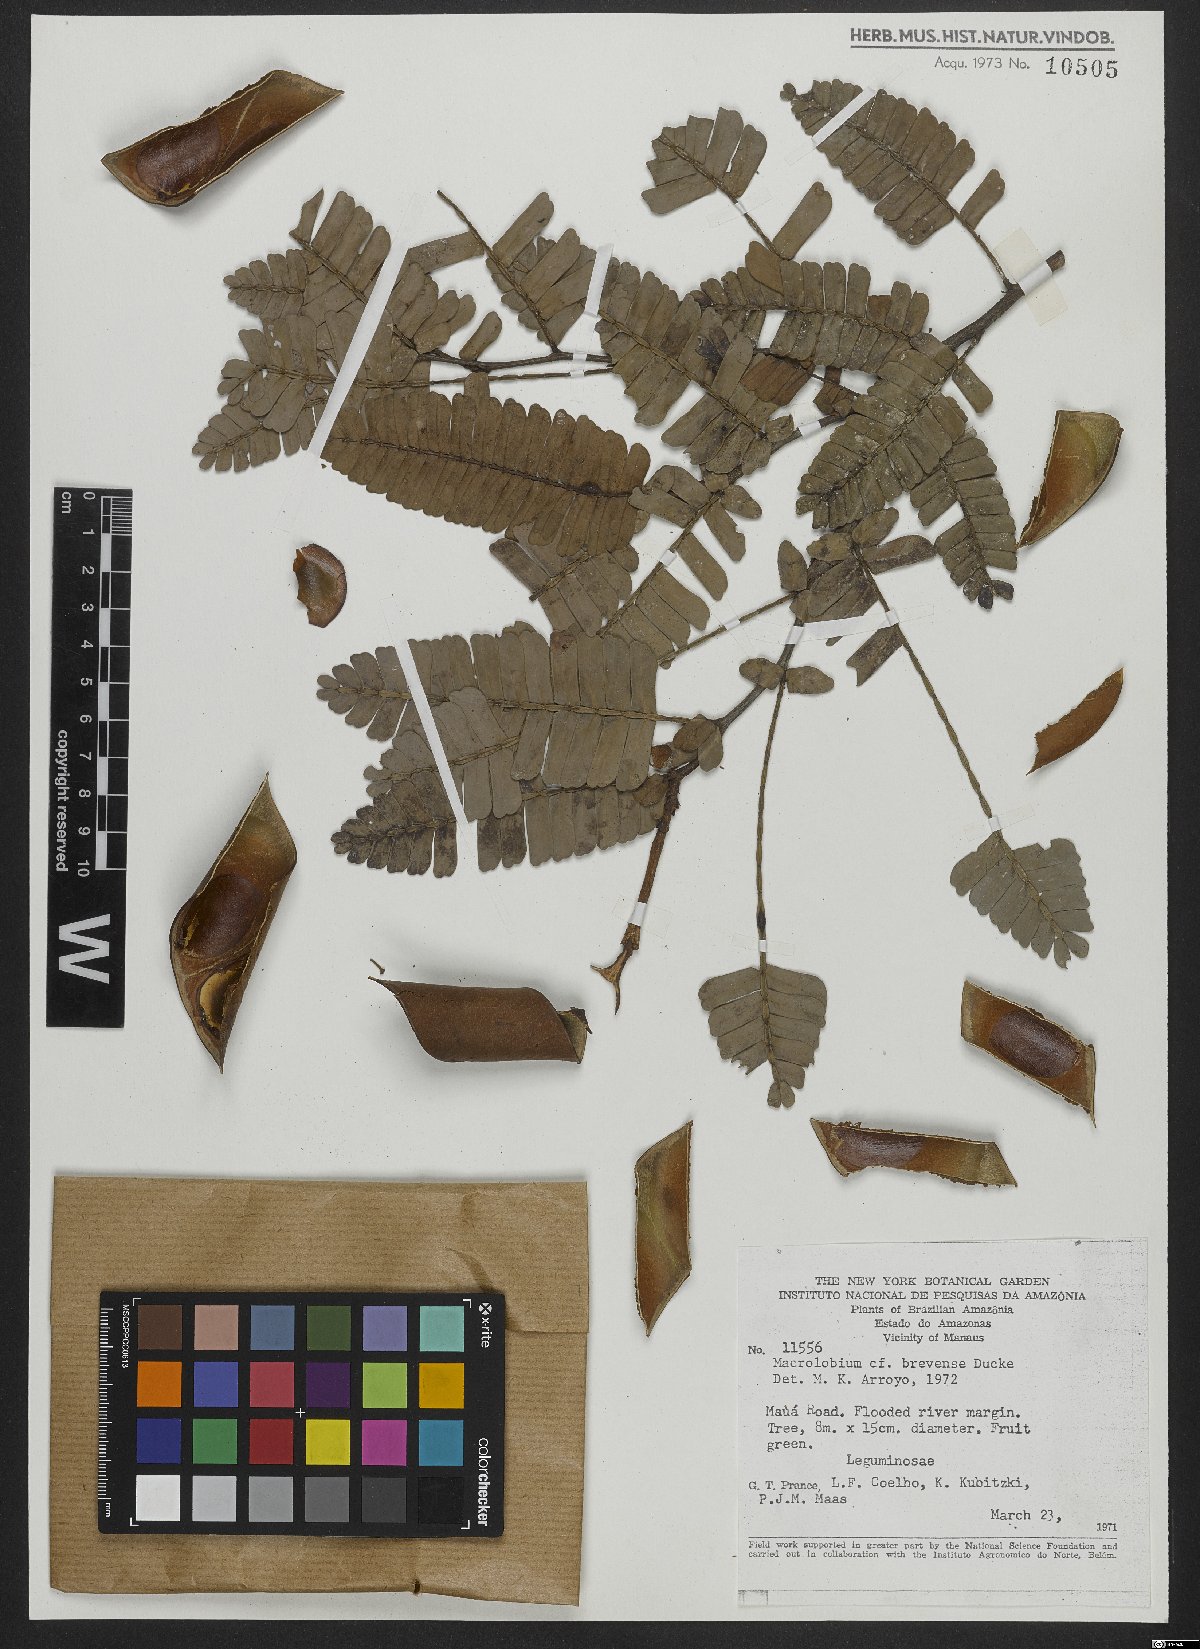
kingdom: Plantae
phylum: Tracheophyta
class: Magnoliopsida
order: Fabales
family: Fabaceae
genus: Macrolobium
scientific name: Macrolobium brevense
